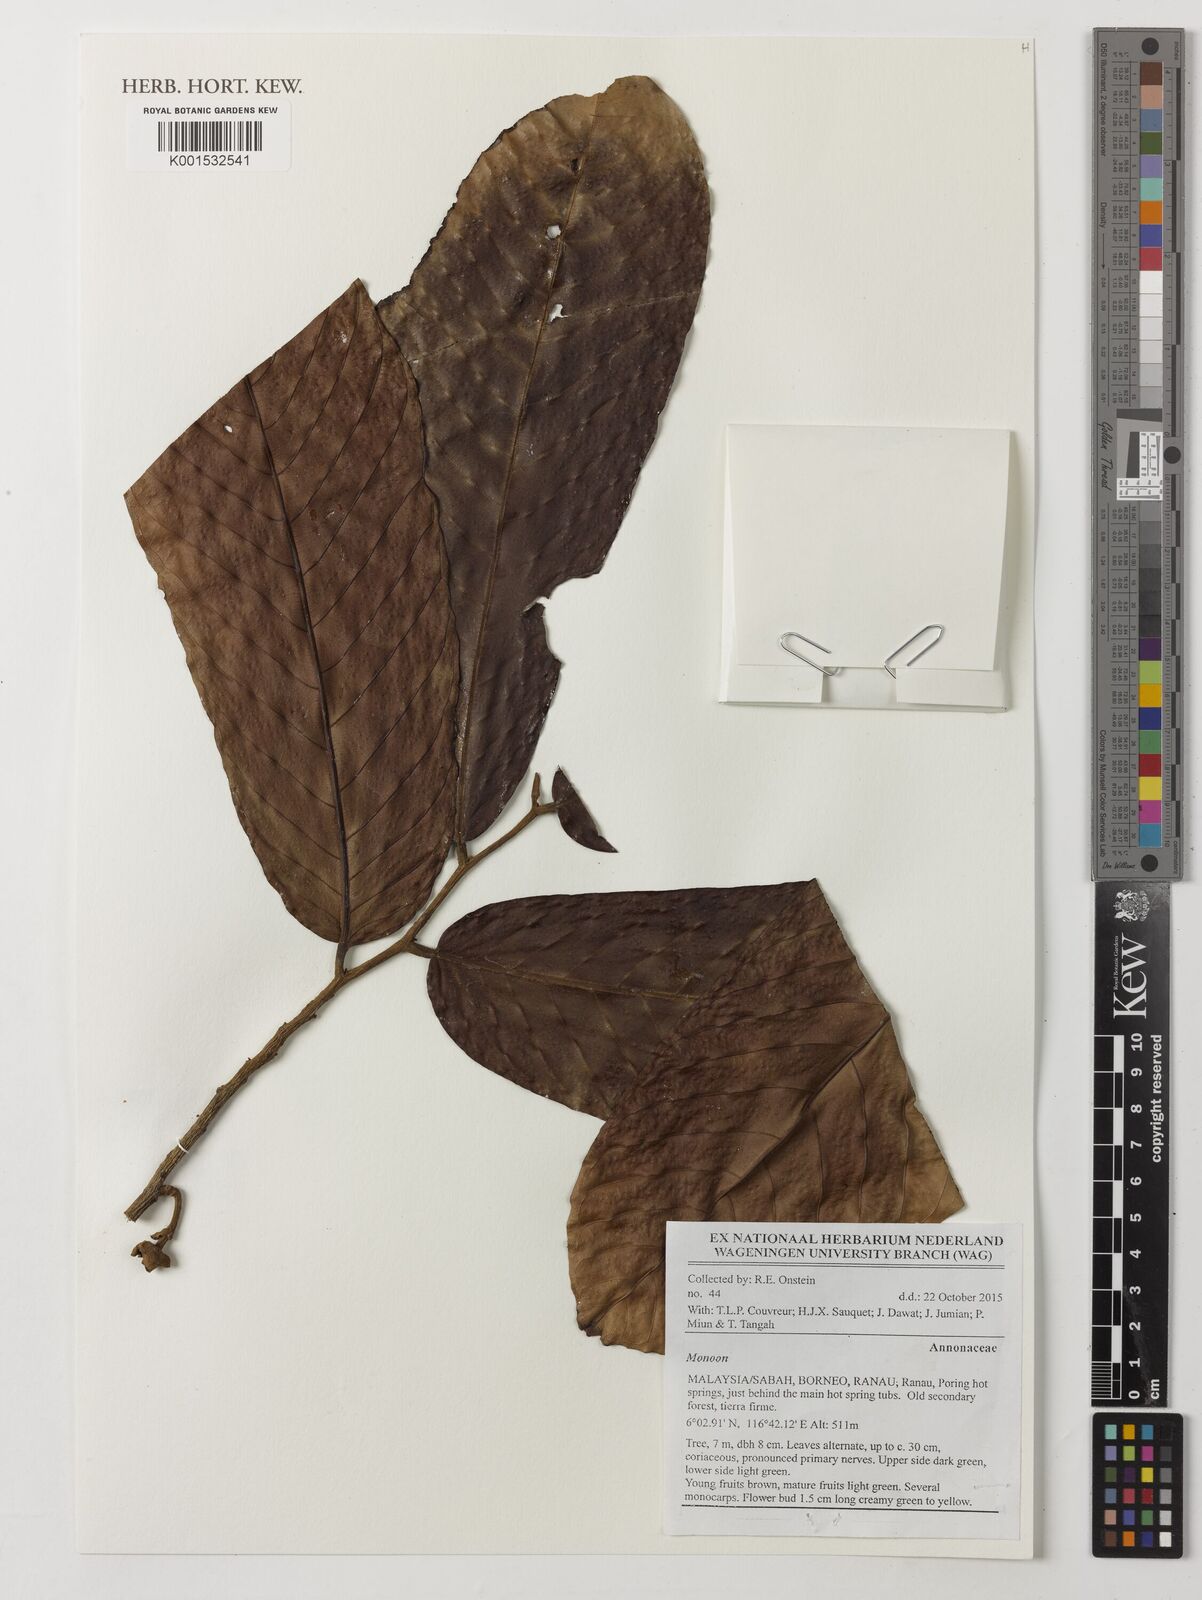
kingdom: Plantae
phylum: Tracheophyta
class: Magnoliopsida
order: Magnoliales
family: Annonaceae
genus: Monoon
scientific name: Monoon
